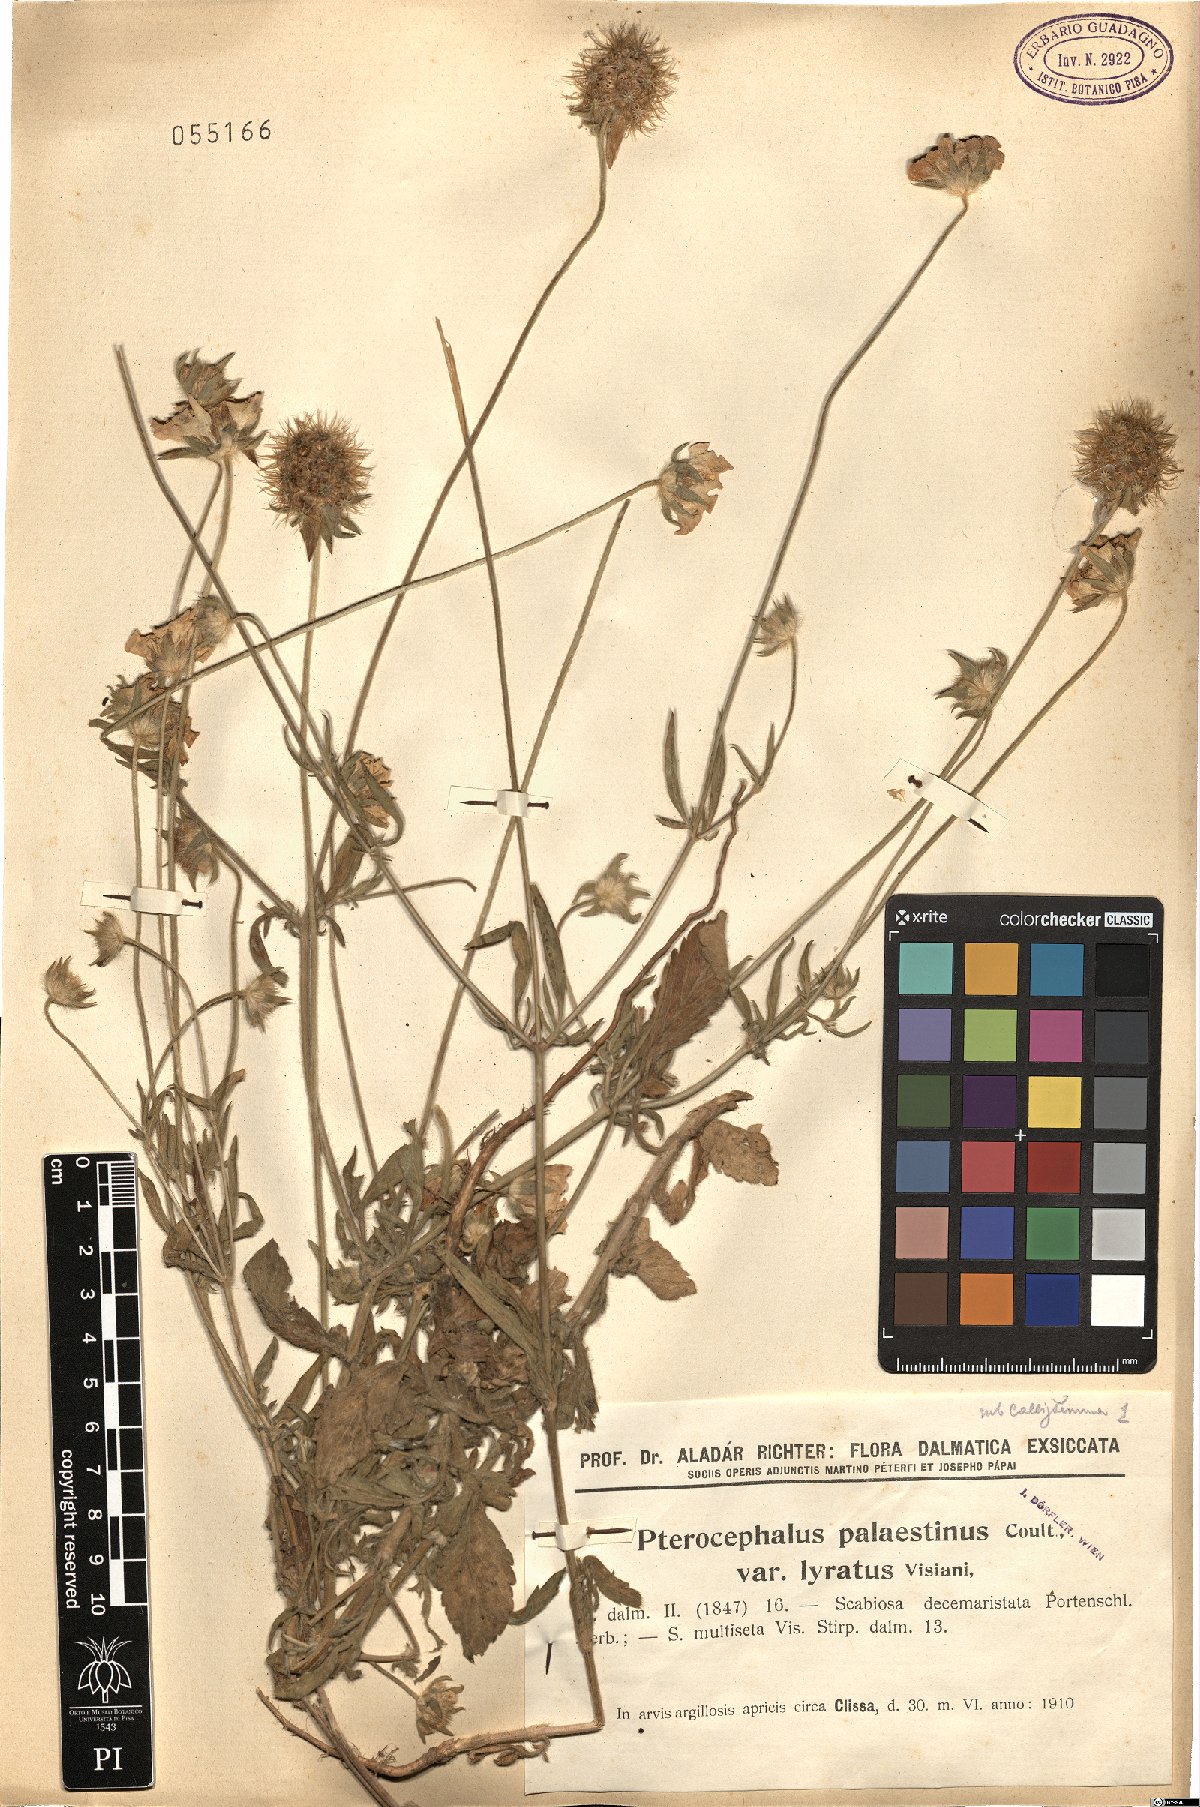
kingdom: Plantae
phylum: Tracheophyta
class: Magnoliopsida
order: Dipsacales
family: Caprifoliaceae
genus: Lomelosia
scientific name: Lomelosia palaestina
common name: Balkan pincushions
